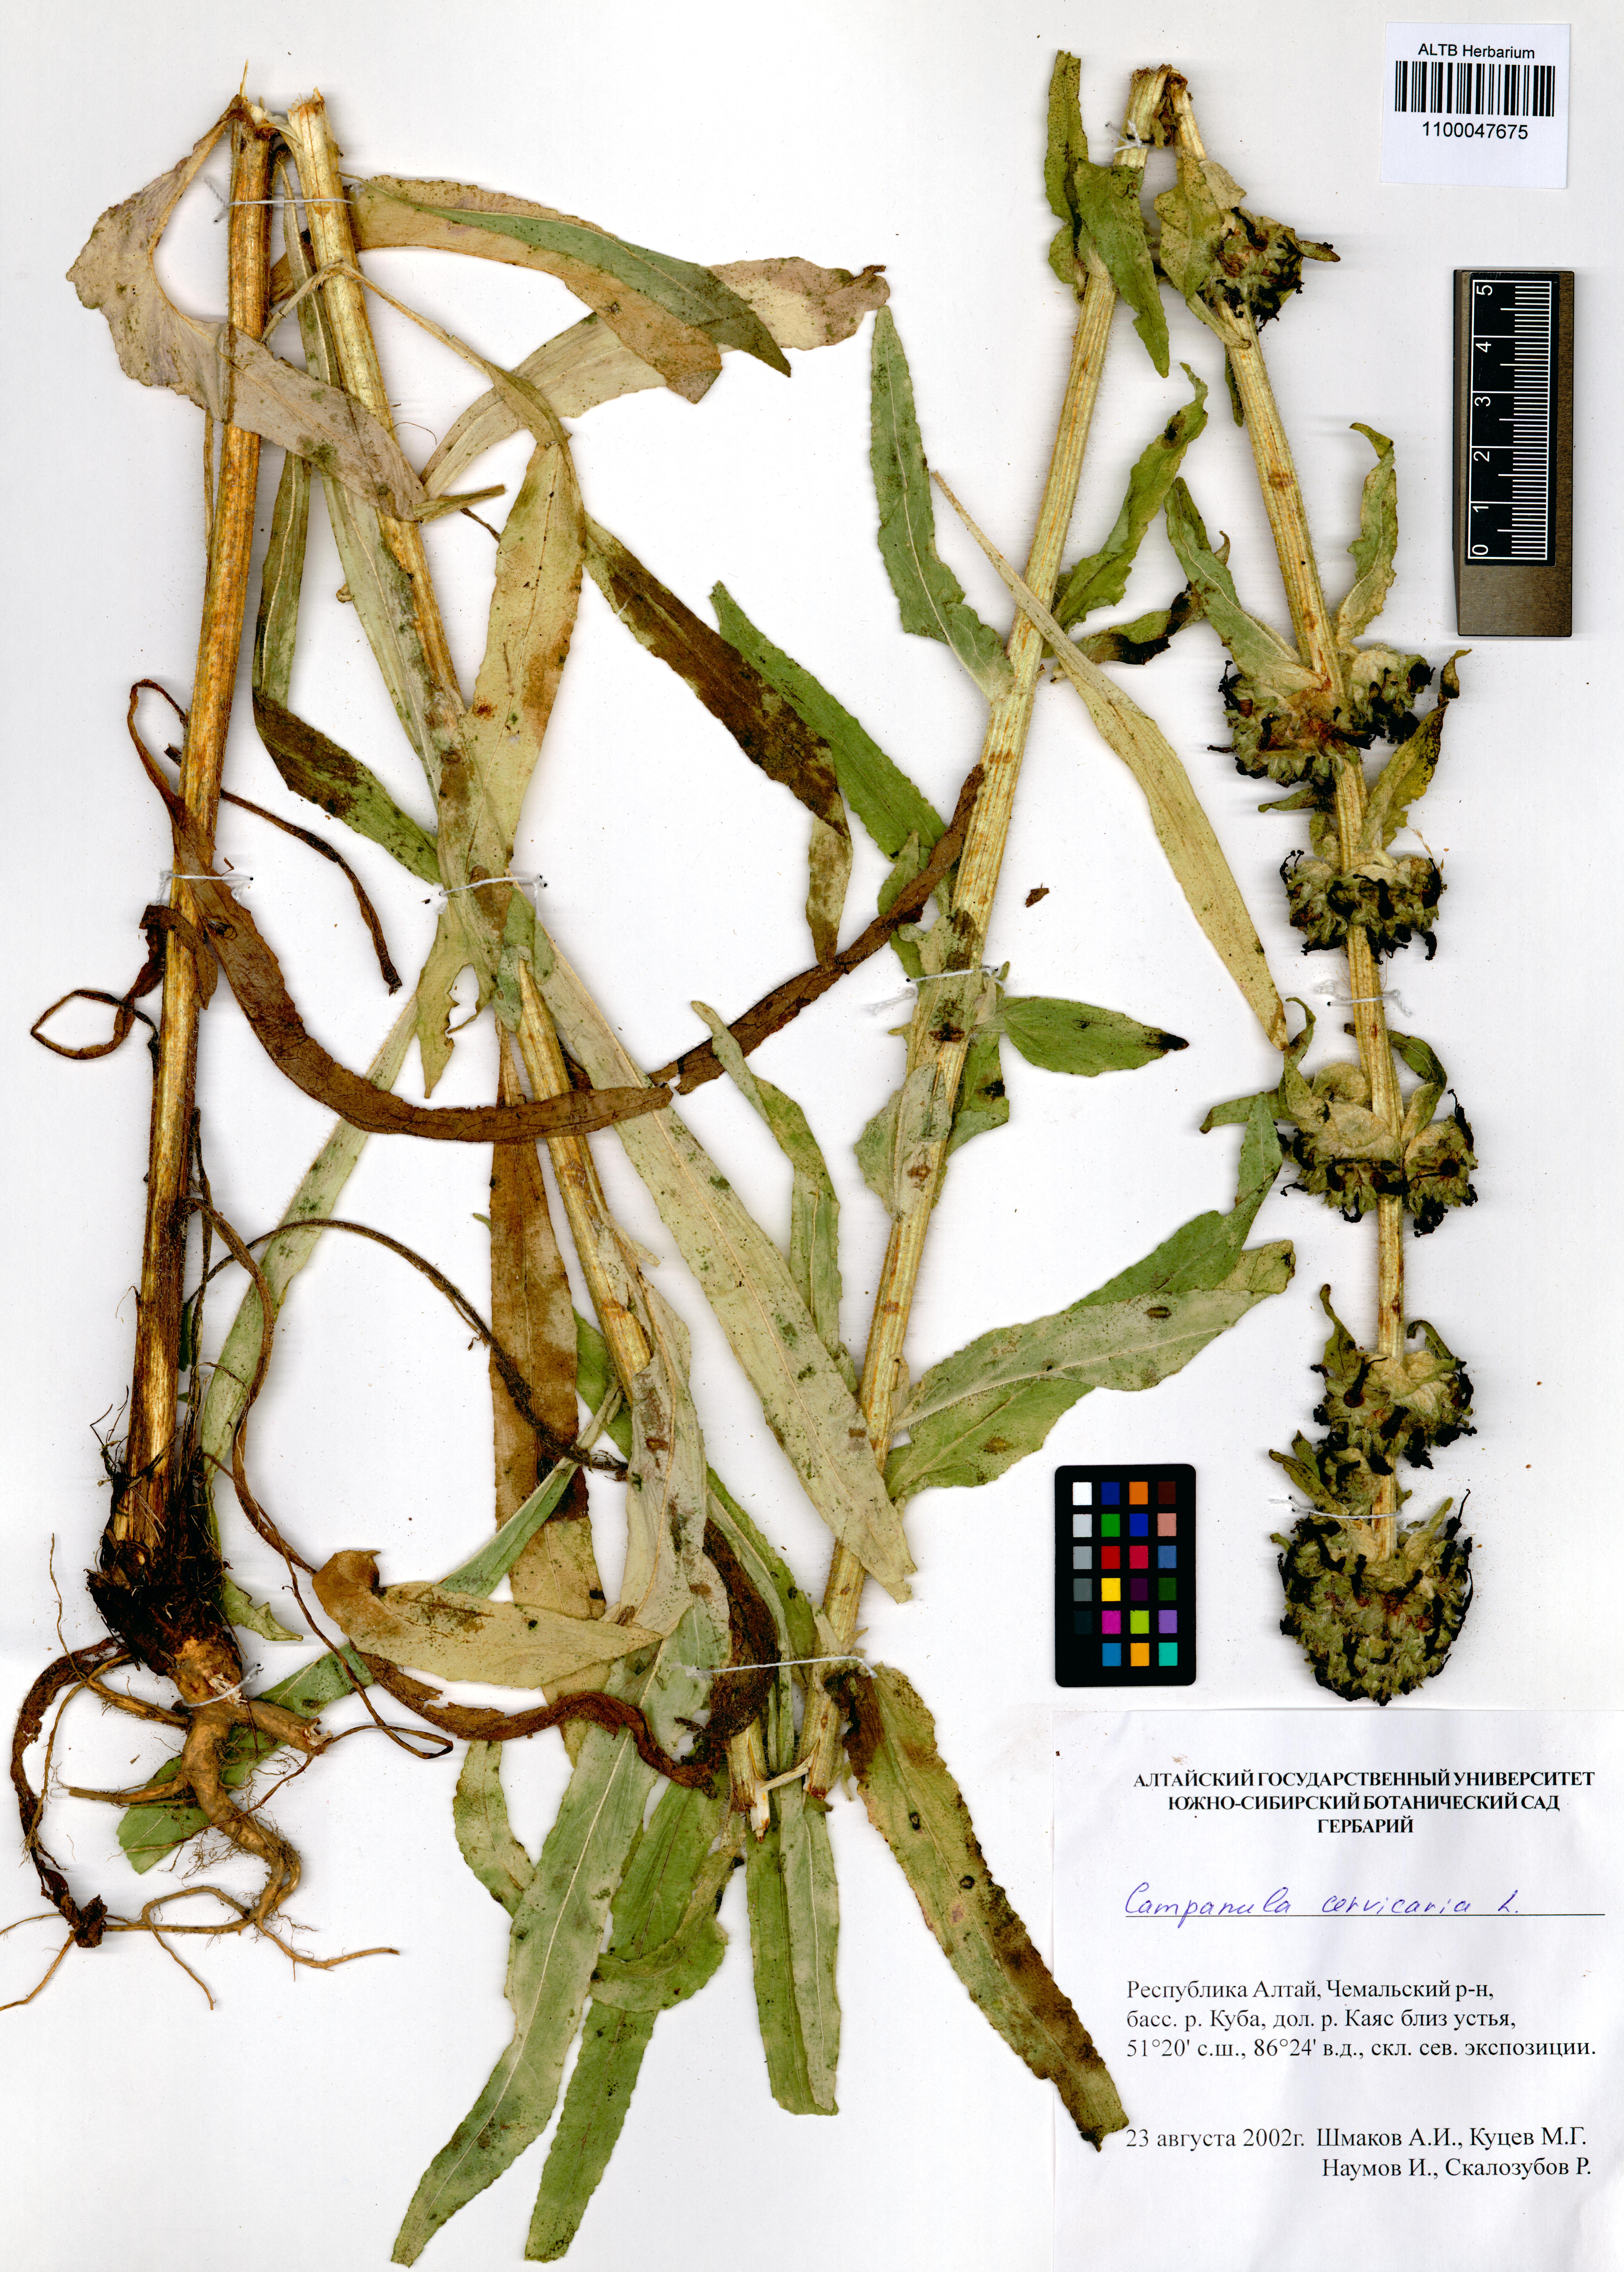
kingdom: Plantae
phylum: Tracheophyta
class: Magnoliopsida
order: Asterales
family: Campanulaceae
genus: Campanula
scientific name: Campanula cervicaria
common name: Bristly bellflower
